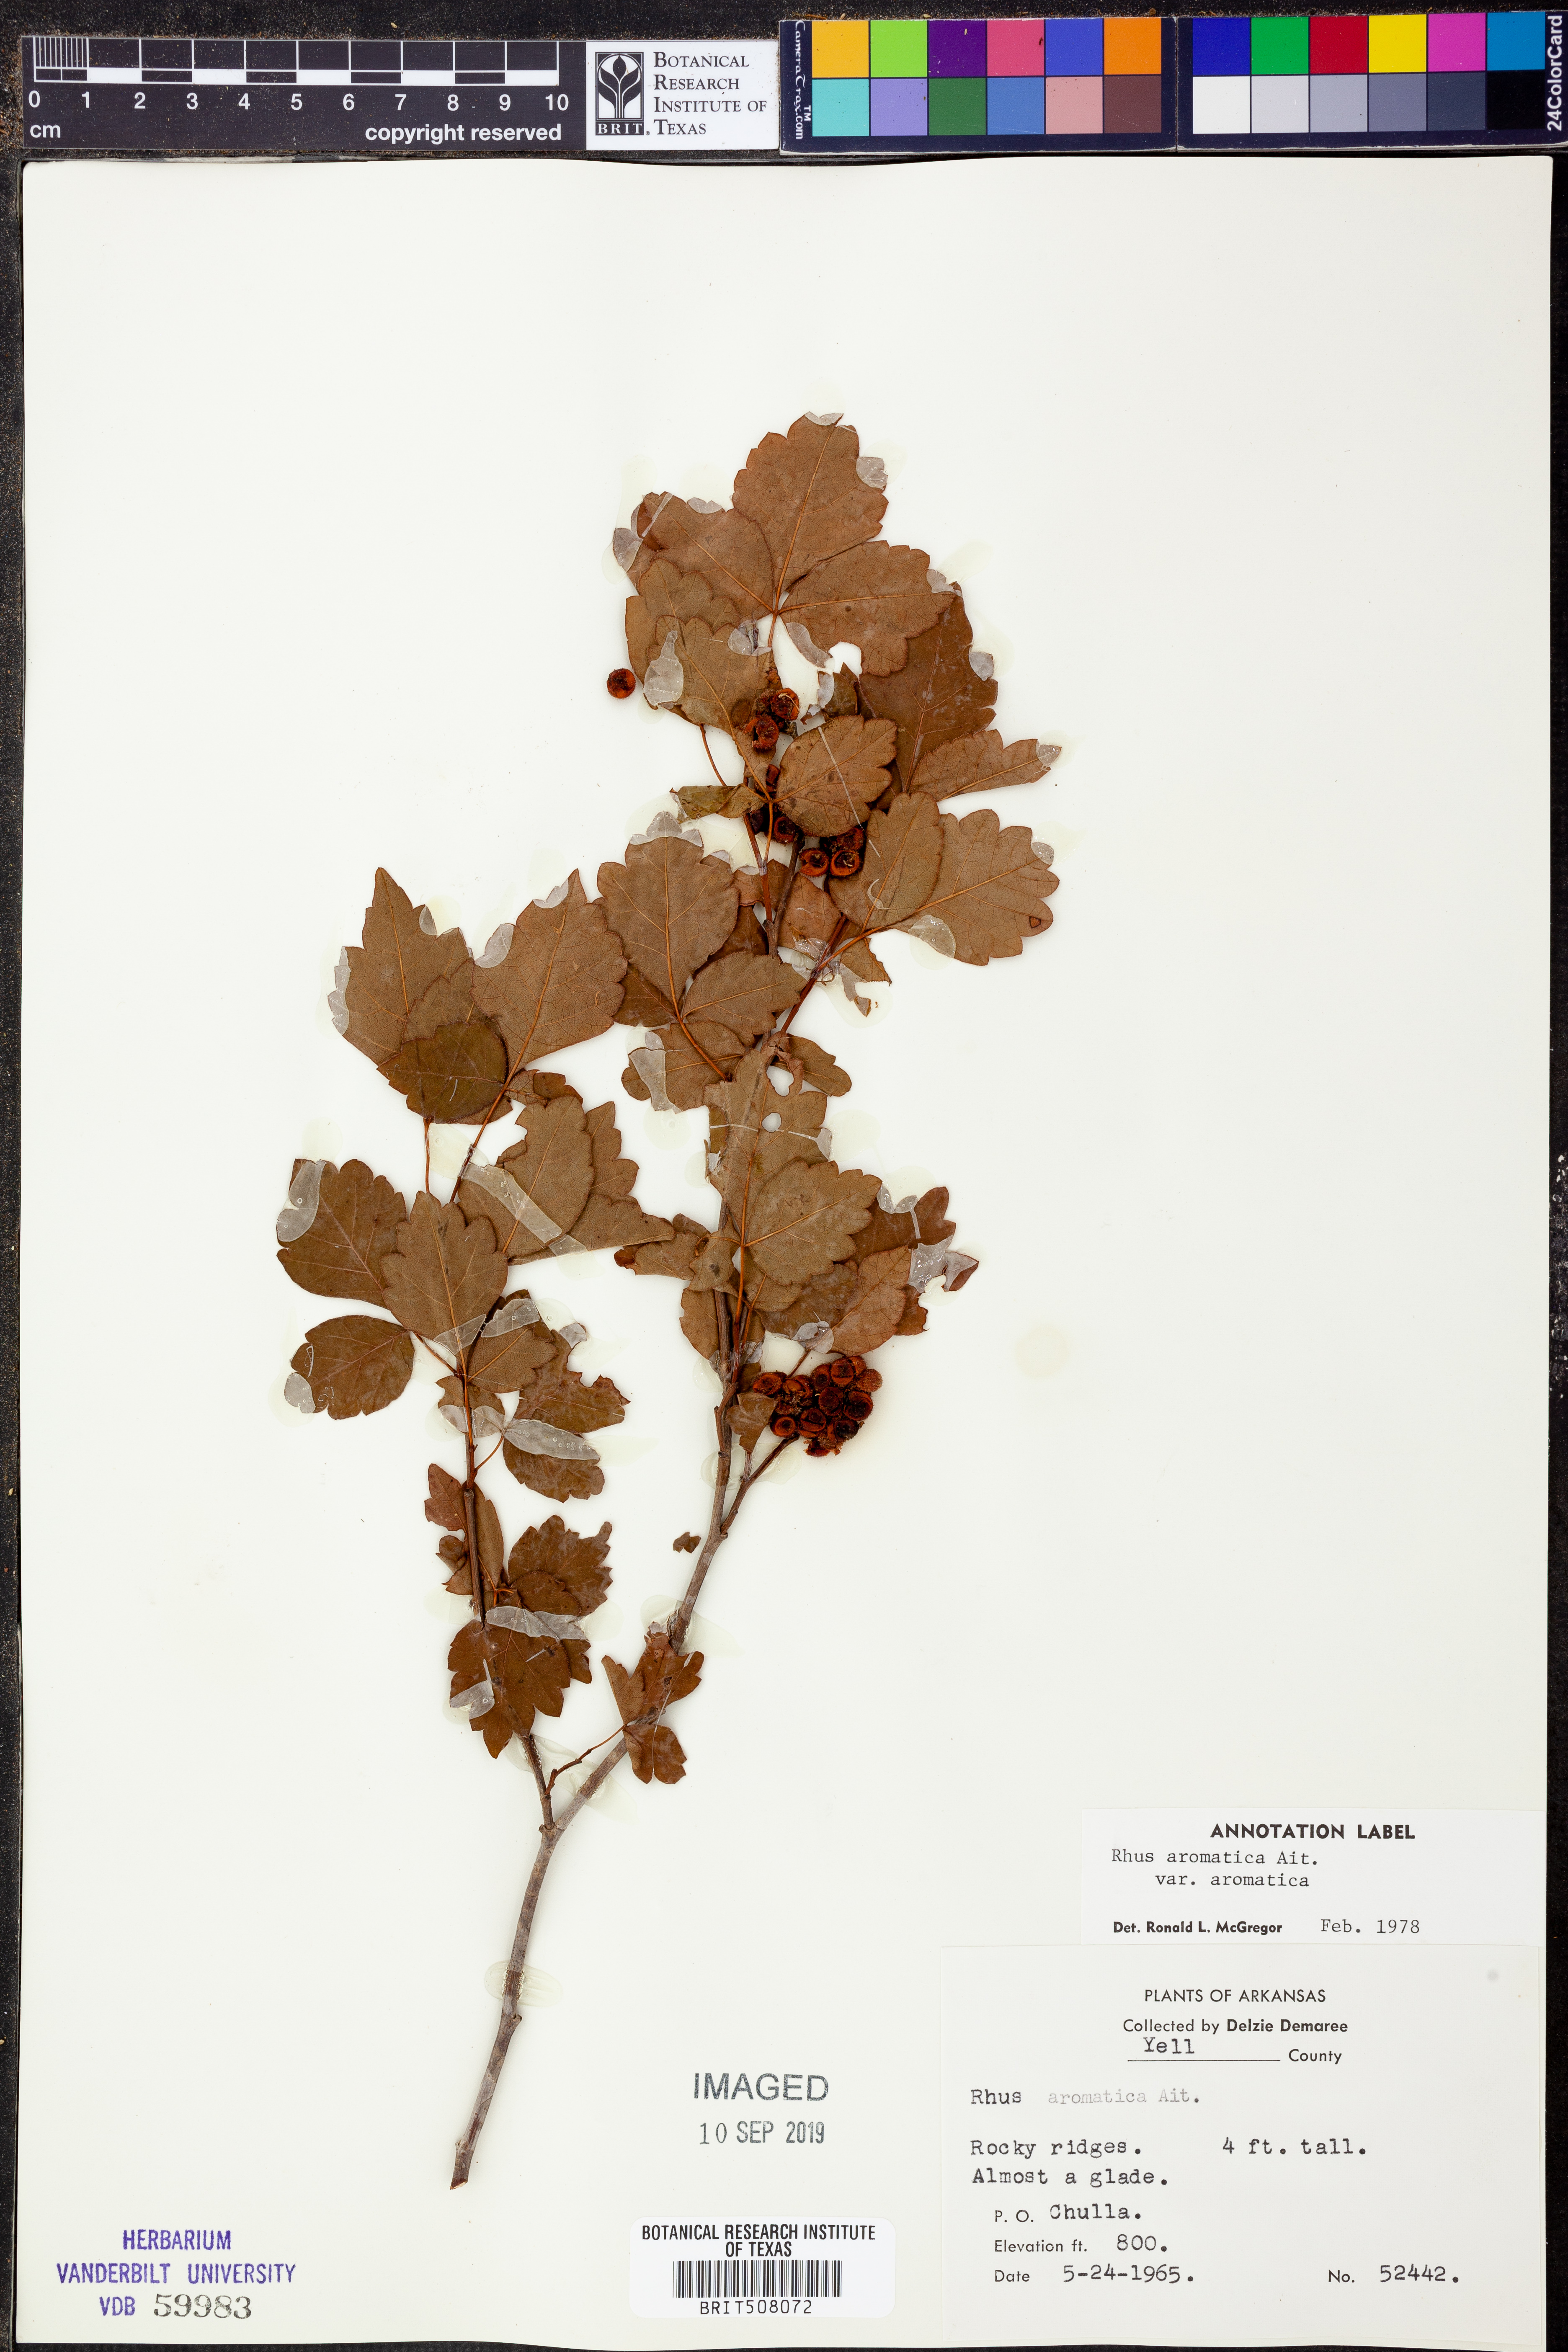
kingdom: Plantae
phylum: Tracheophyta
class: Magnoliopsida
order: Sapindales
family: Anacardiaceae
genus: Rhus
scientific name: Rhus aromatica
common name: Aromatic sumac
